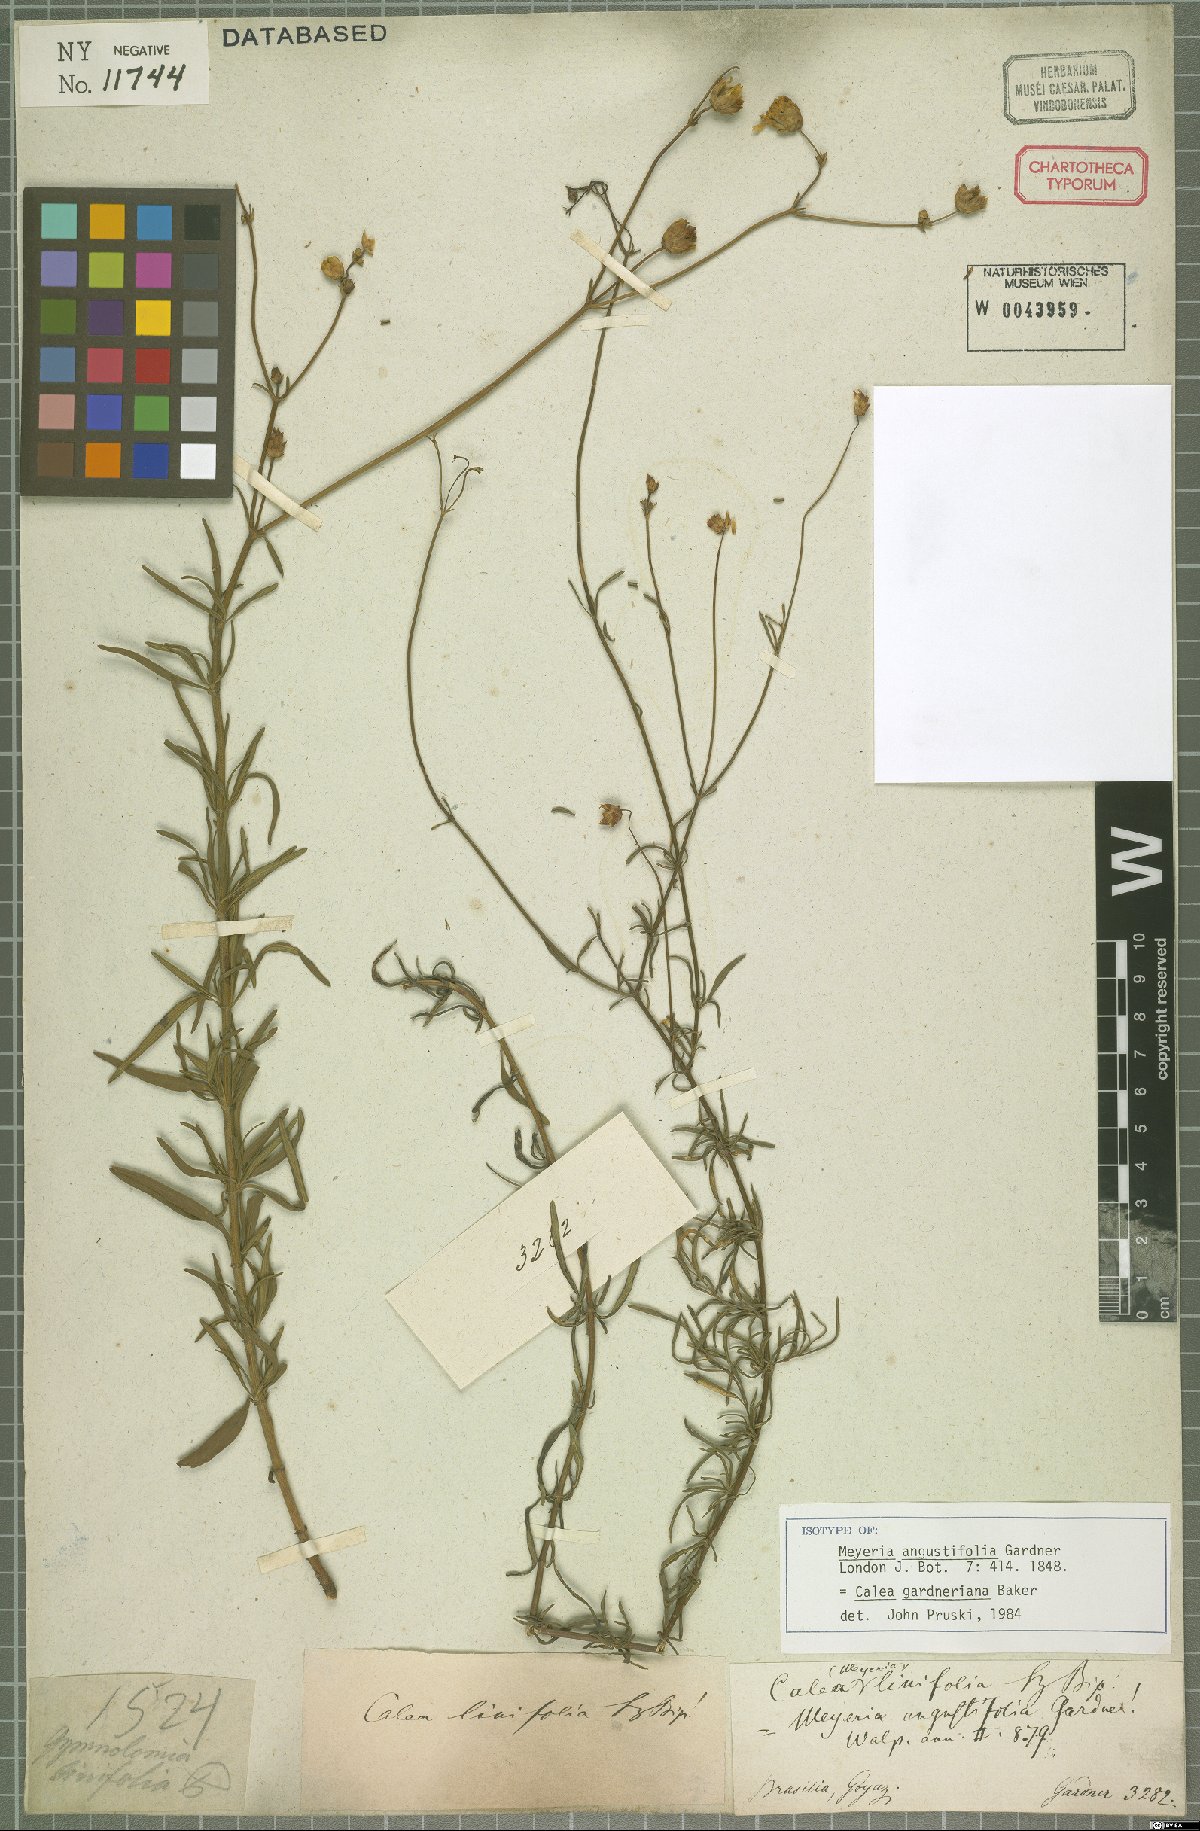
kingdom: Plantae
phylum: Tracheophyta
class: Magnoliopsida
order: Asterales
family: Asteraceae
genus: Calea
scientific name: Calea gardneriana
